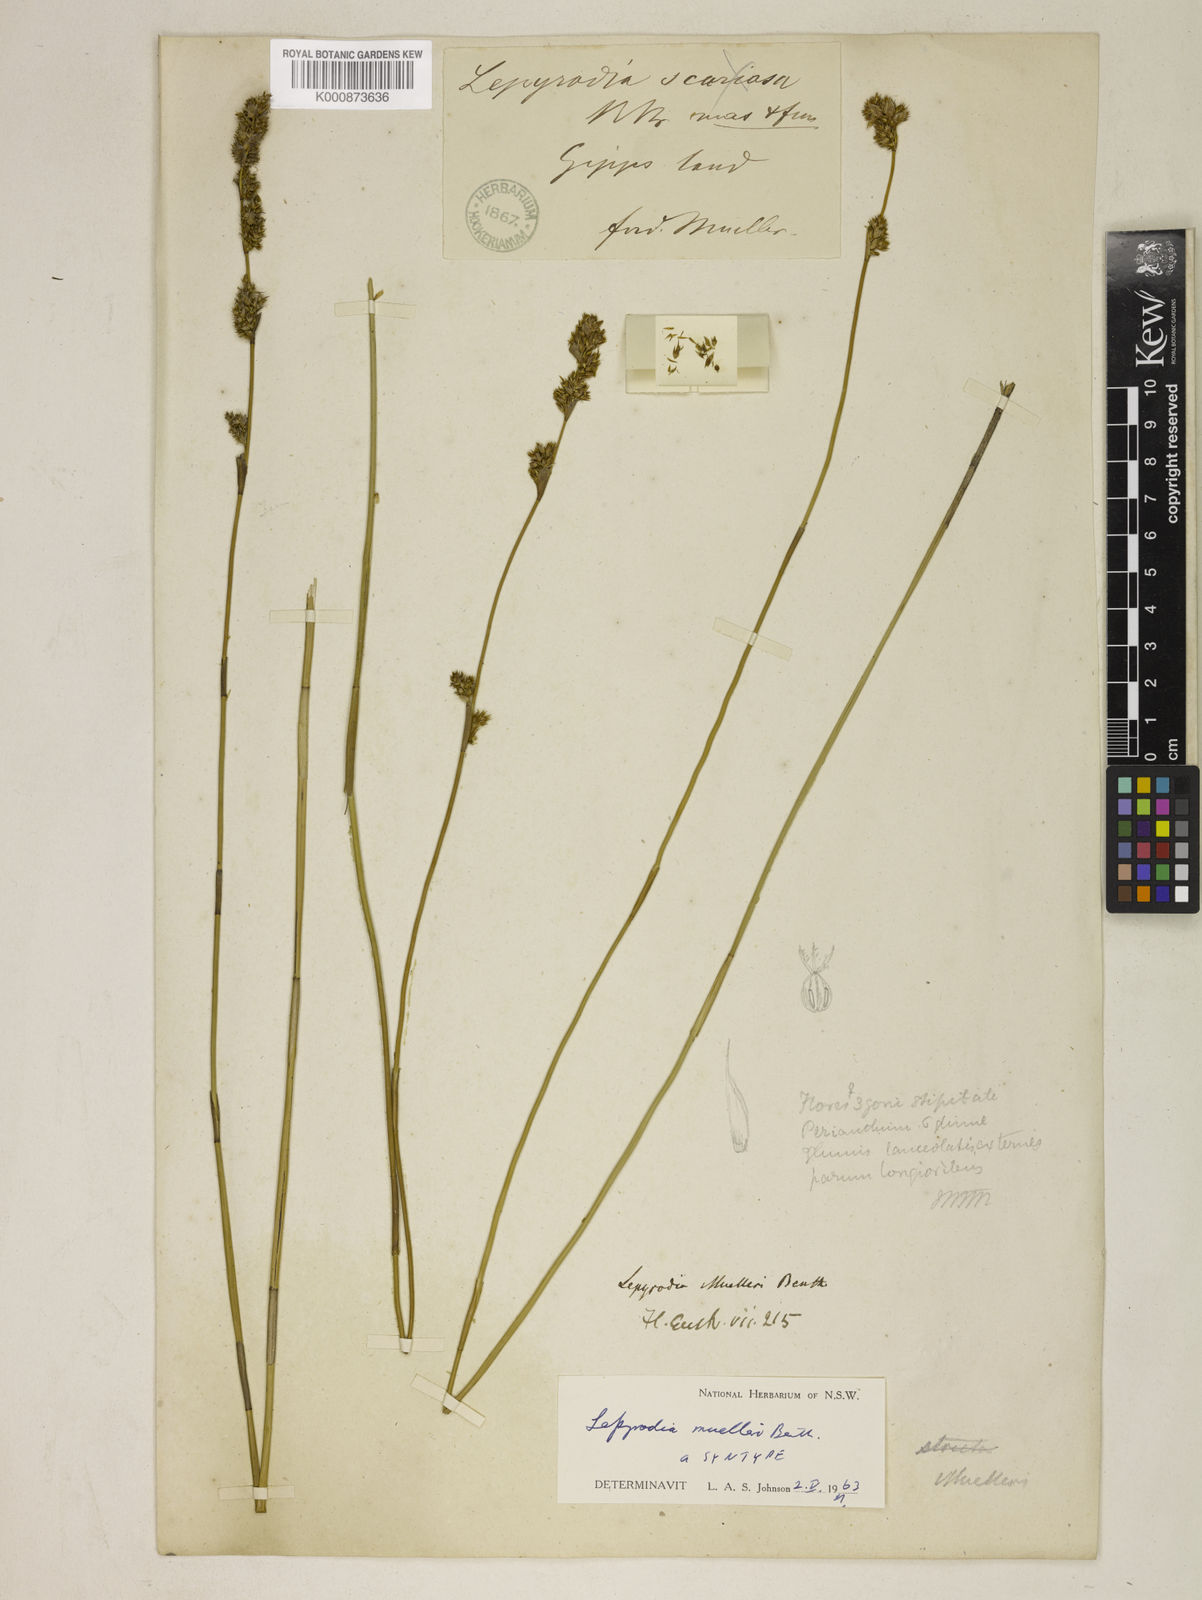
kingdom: Plantae
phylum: Tracheophyta
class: Liliopsida
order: Poales
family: Restionaceae
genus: Lepyrodia
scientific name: Lepyrodia muelleri
